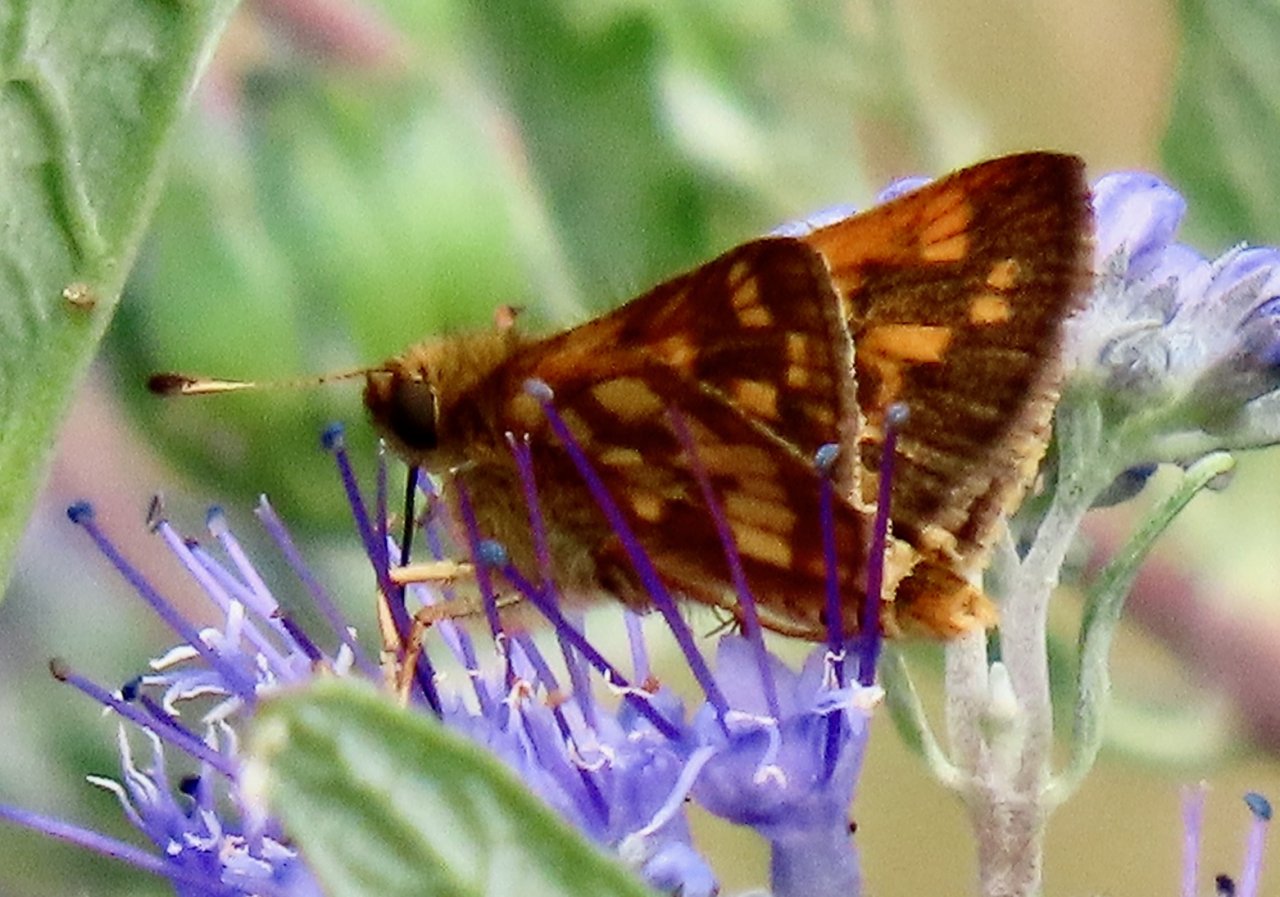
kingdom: Animalia
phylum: Arthropoda
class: Insecta
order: Lepidoptera
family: Hesperiidae
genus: Polites
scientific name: Polites coras
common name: Peck's Skipper
